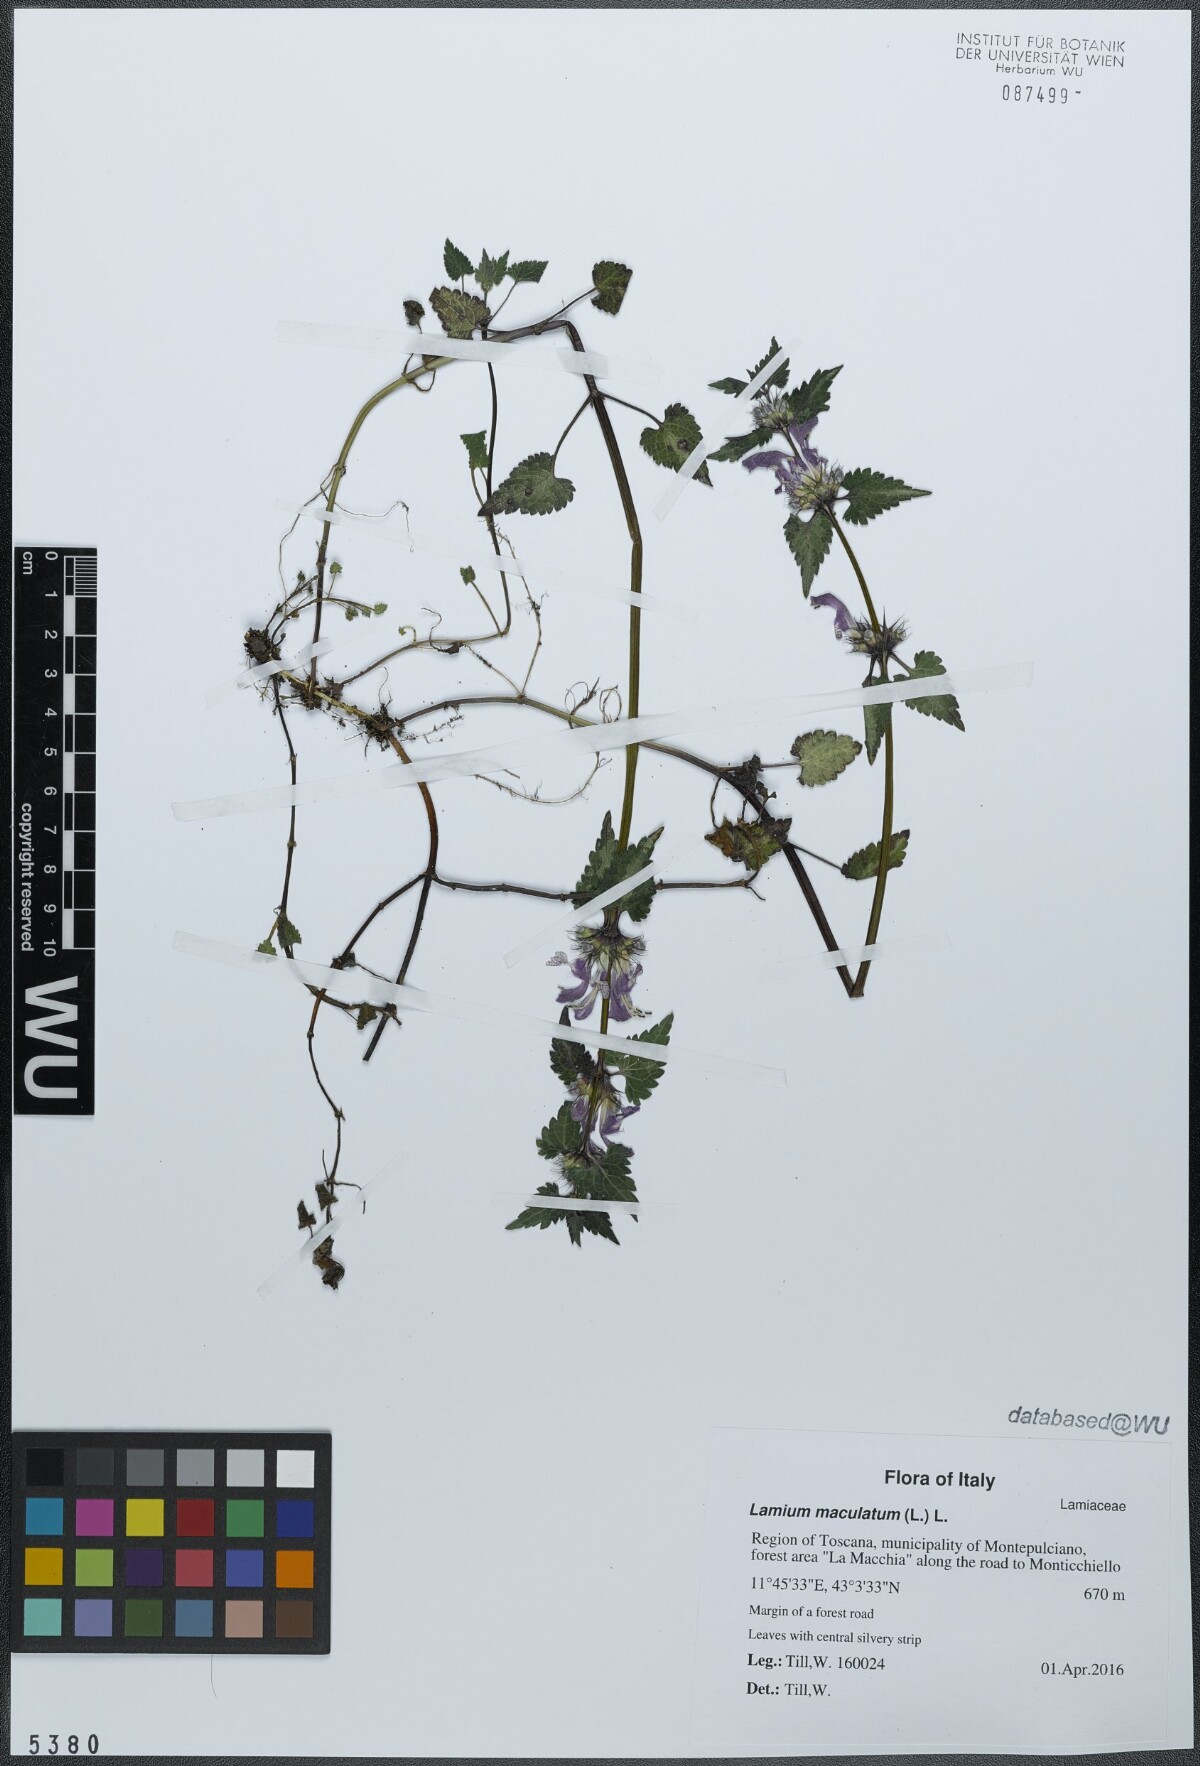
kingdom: Plantae
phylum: Tracheophyta
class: Magnoliopsida
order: Lamiales
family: Lamiaceae
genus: Lamium
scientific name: Lamium maculatum
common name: Spotted dead-nettle
